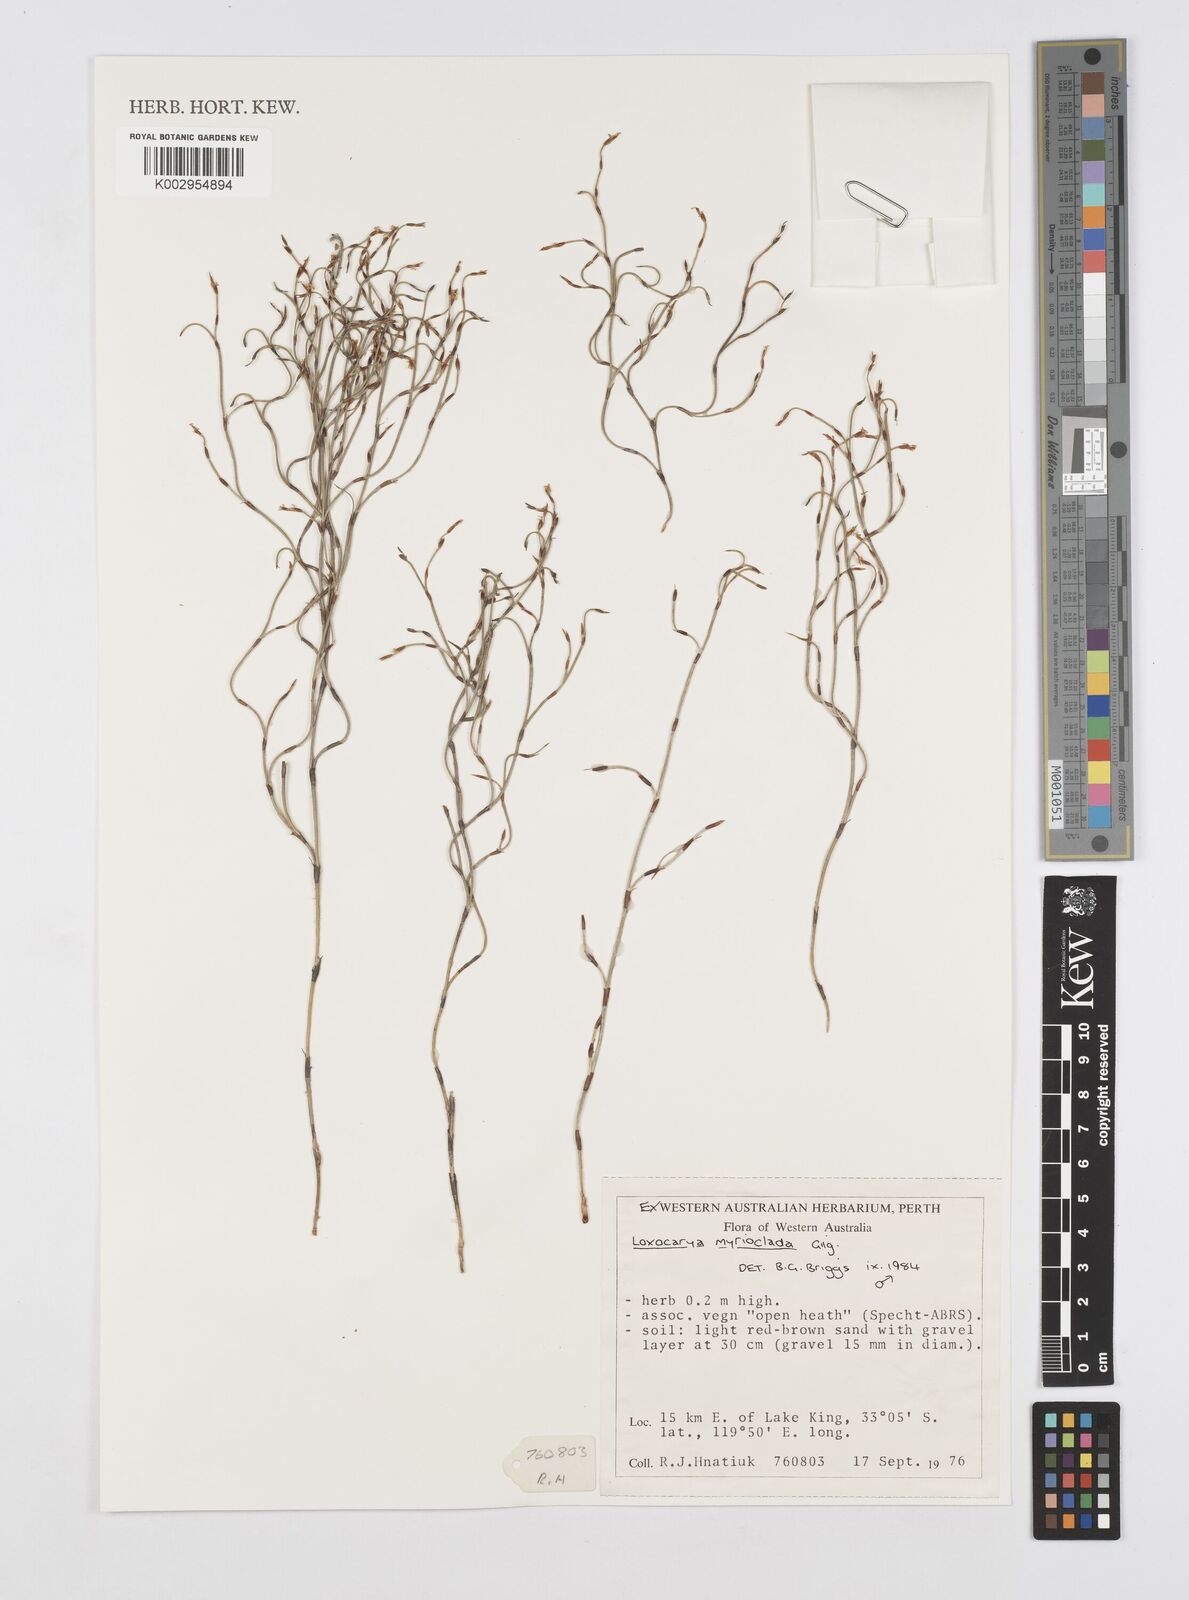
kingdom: Plantae
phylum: Tracheophyta
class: Liliopsida
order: Poales
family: Restionaceae
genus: Desmocladus
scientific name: Desmocladus myriocladus
